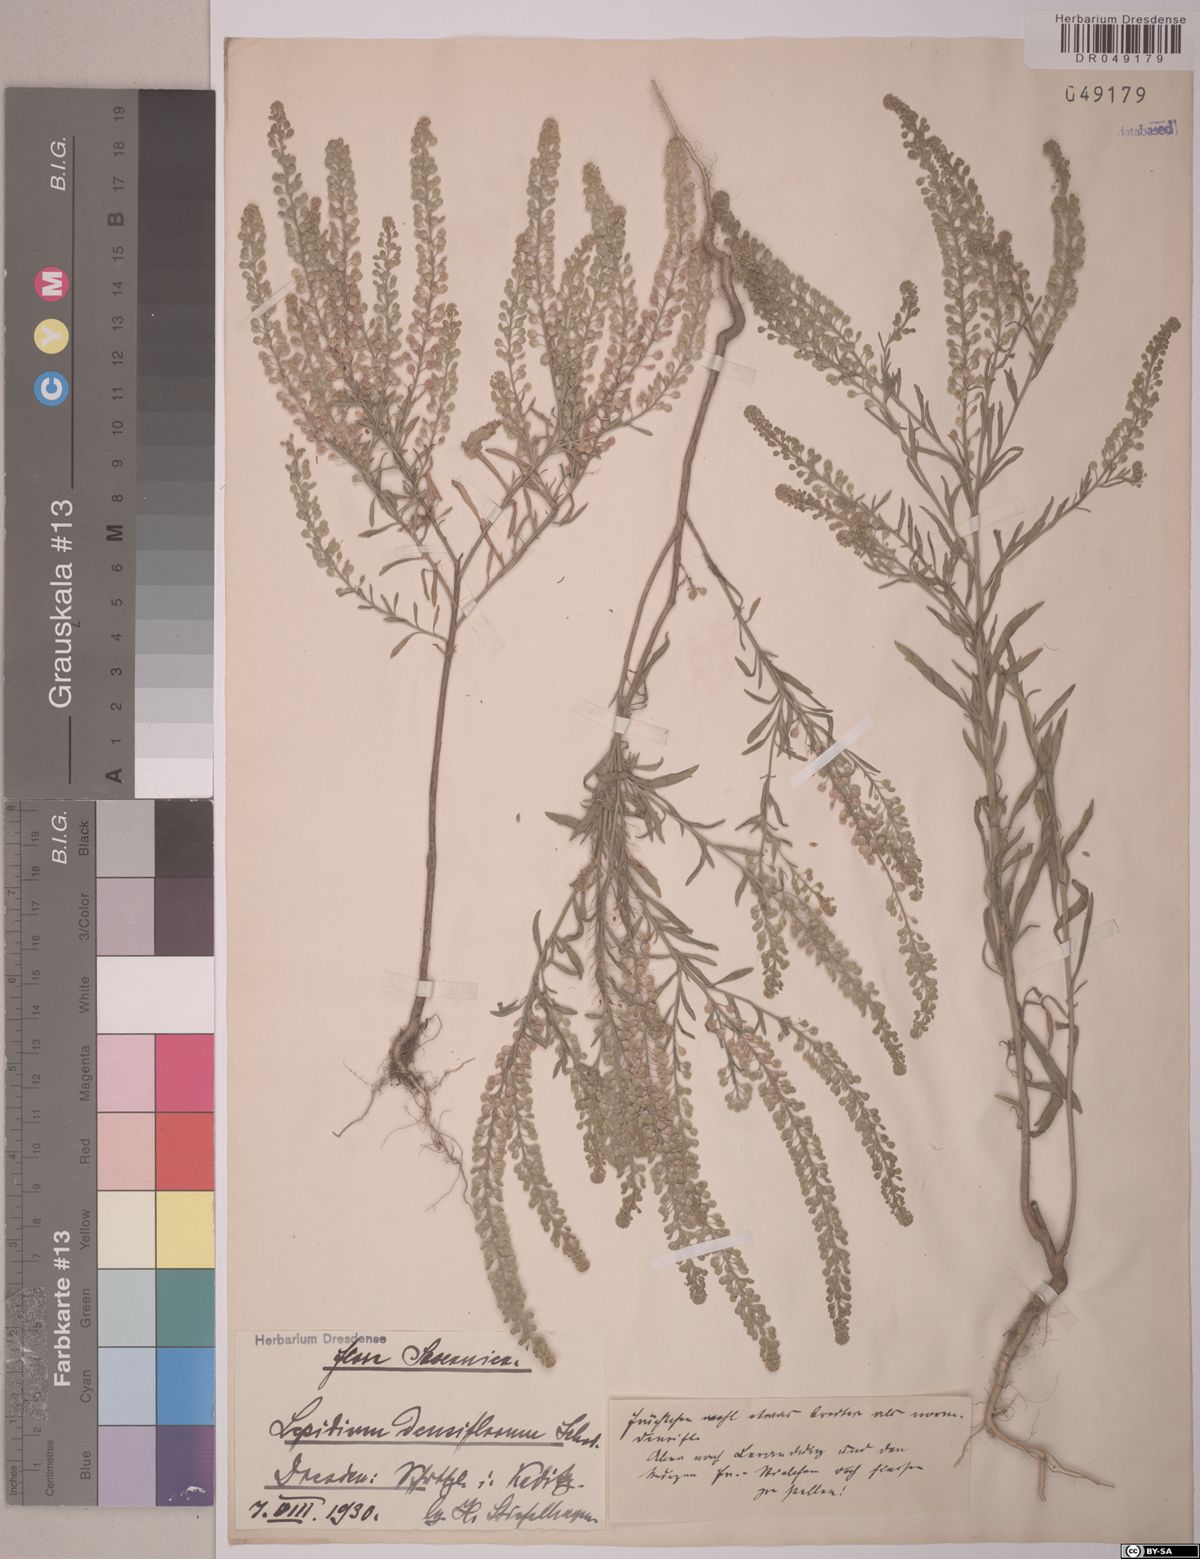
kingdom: Plantae
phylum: Tracheophyta
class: Magnoliopsida
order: Brassicales
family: Brassicaceae
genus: Lepidium
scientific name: Lepidium densiflorum
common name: Miner's pepperwort
